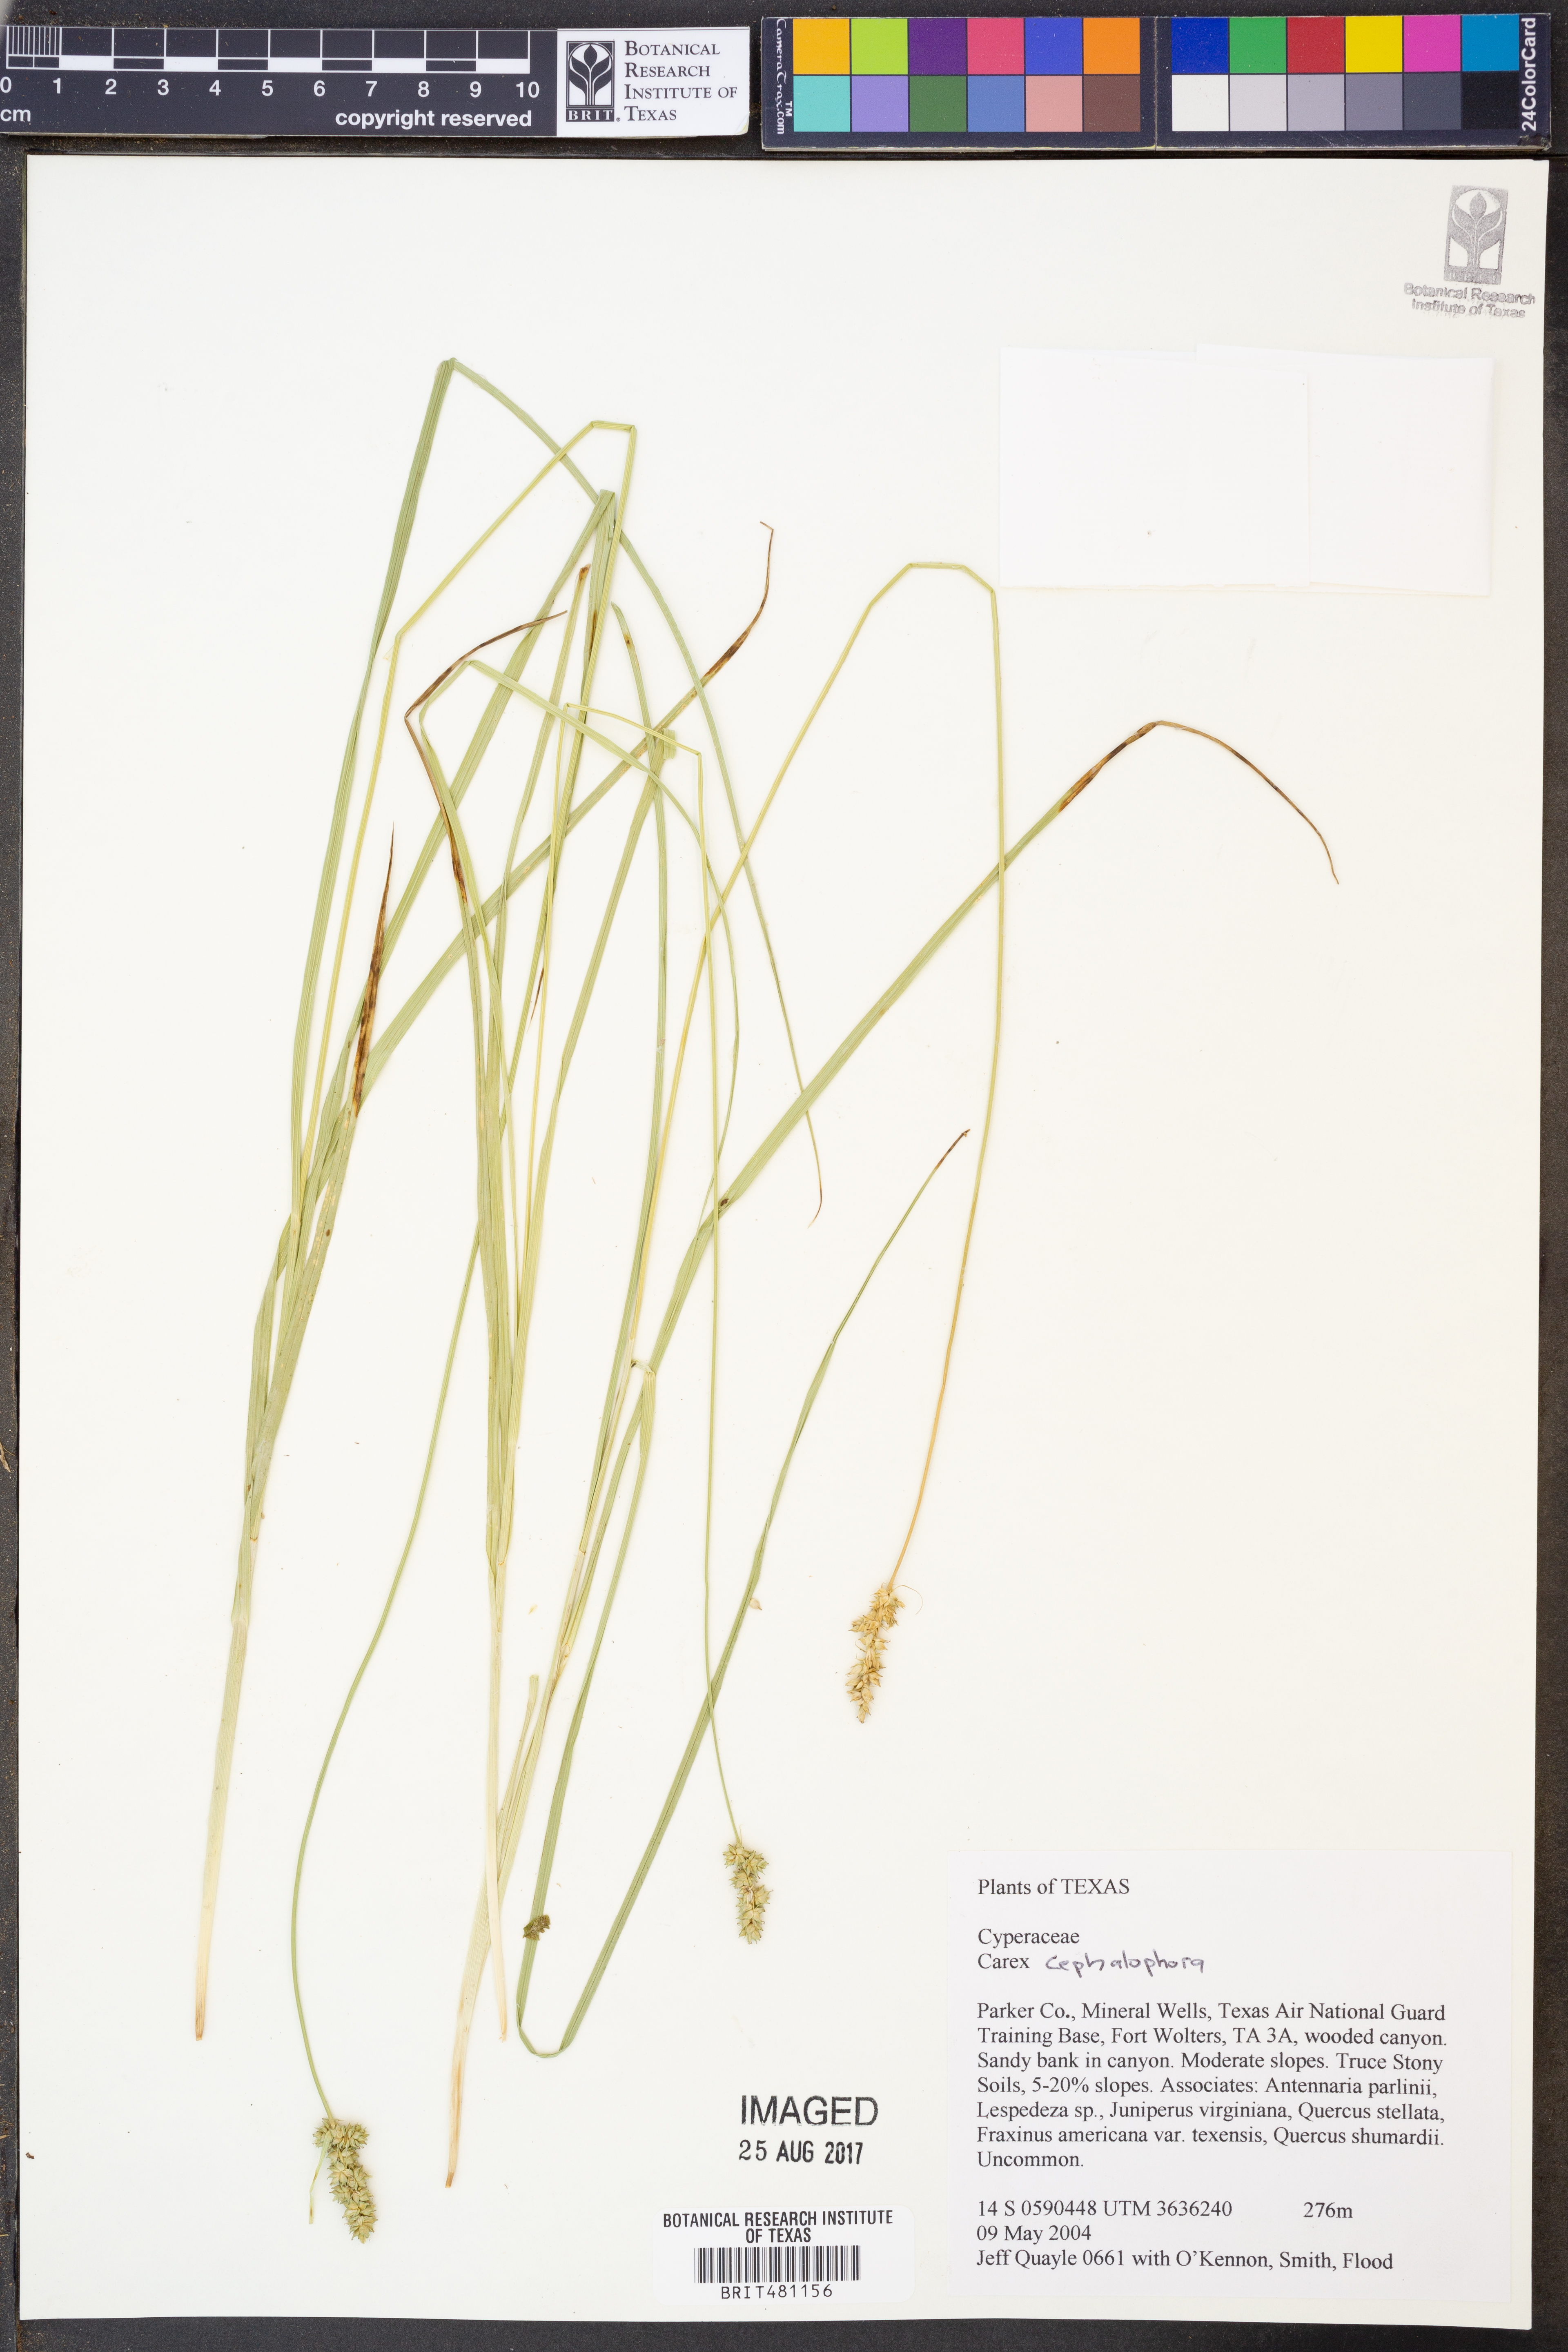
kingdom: Plantae
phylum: Tracheophyta
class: Liliopsida
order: Poales
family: Cyperaceae
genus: Carex
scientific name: Carex cephalophora
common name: Oval-headed sedge
